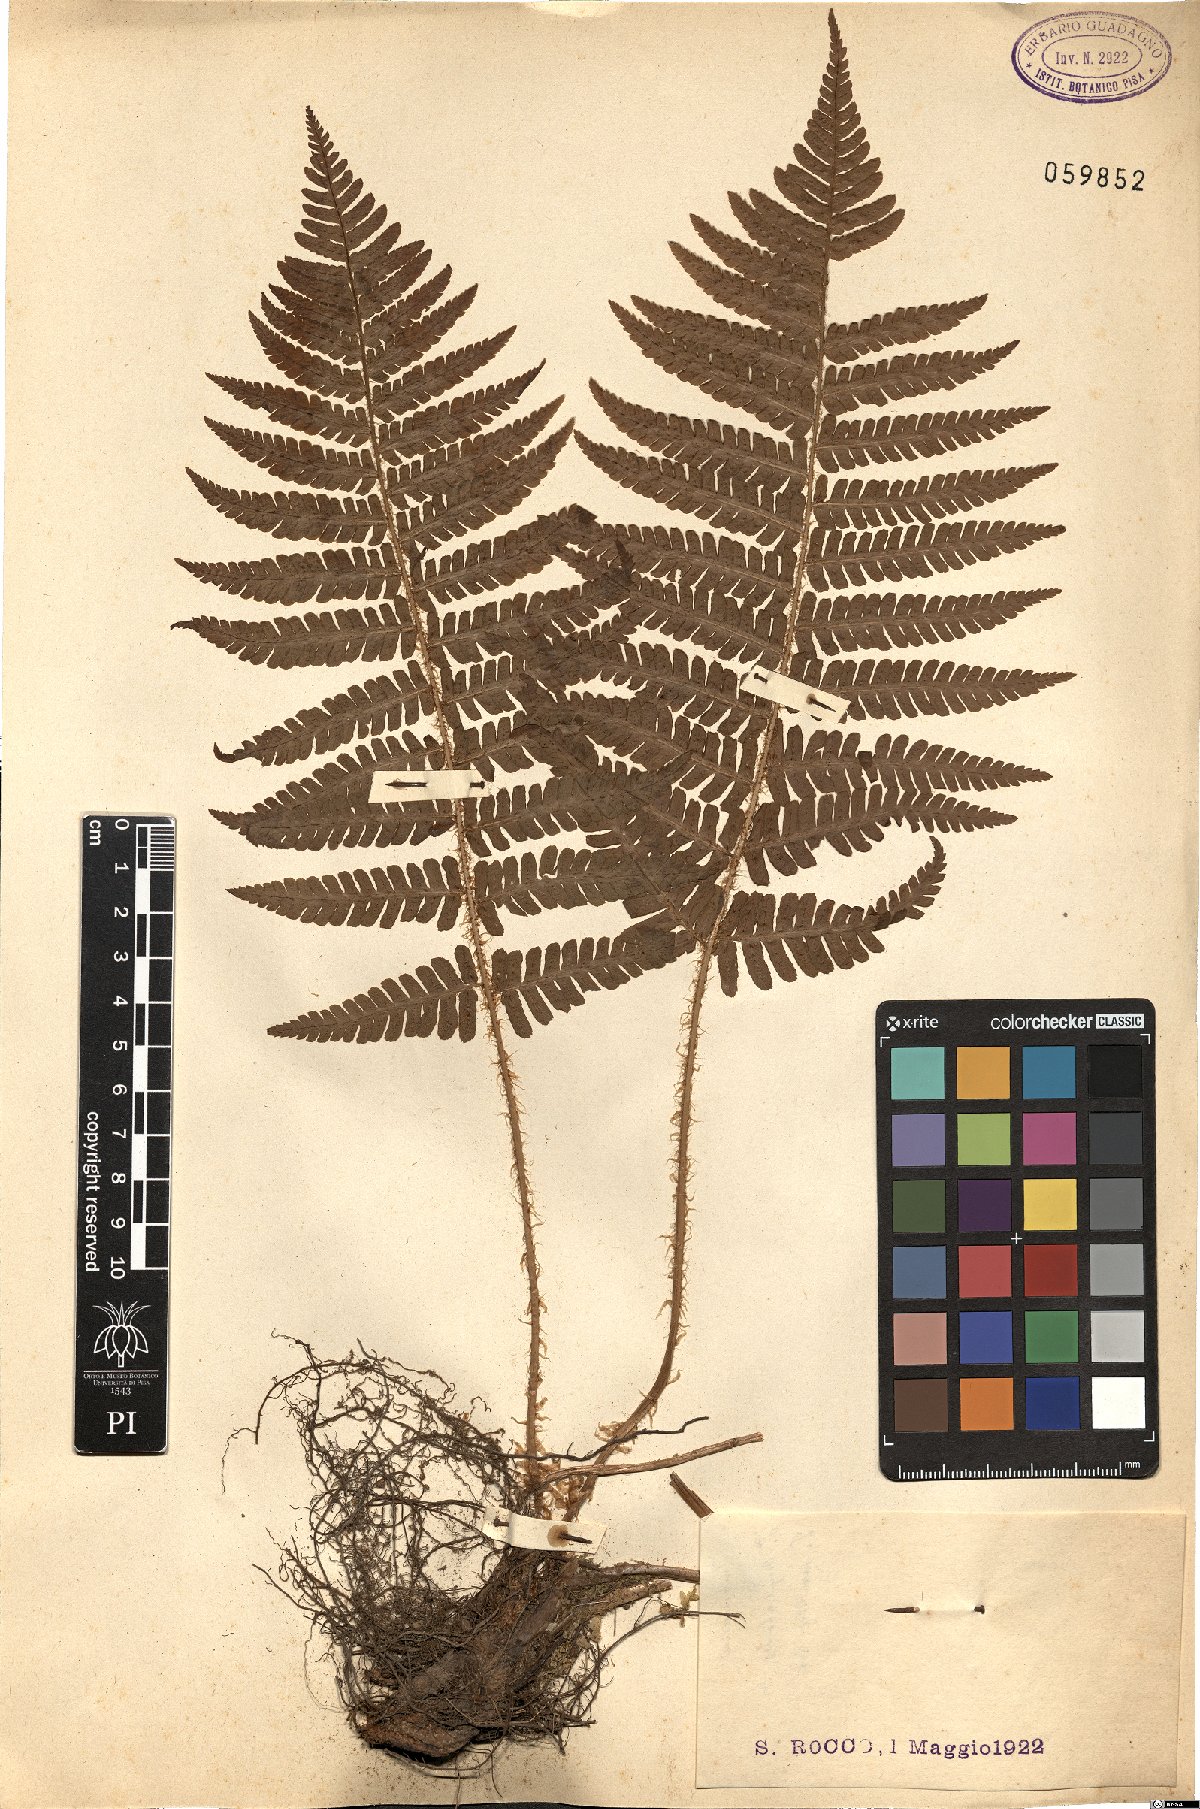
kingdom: Plantae
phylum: Tracheophyta
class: Polypodiopsida
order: Polypodiales
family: Dryopteridaceae
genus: Dryopteris
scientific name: Dryopteris
